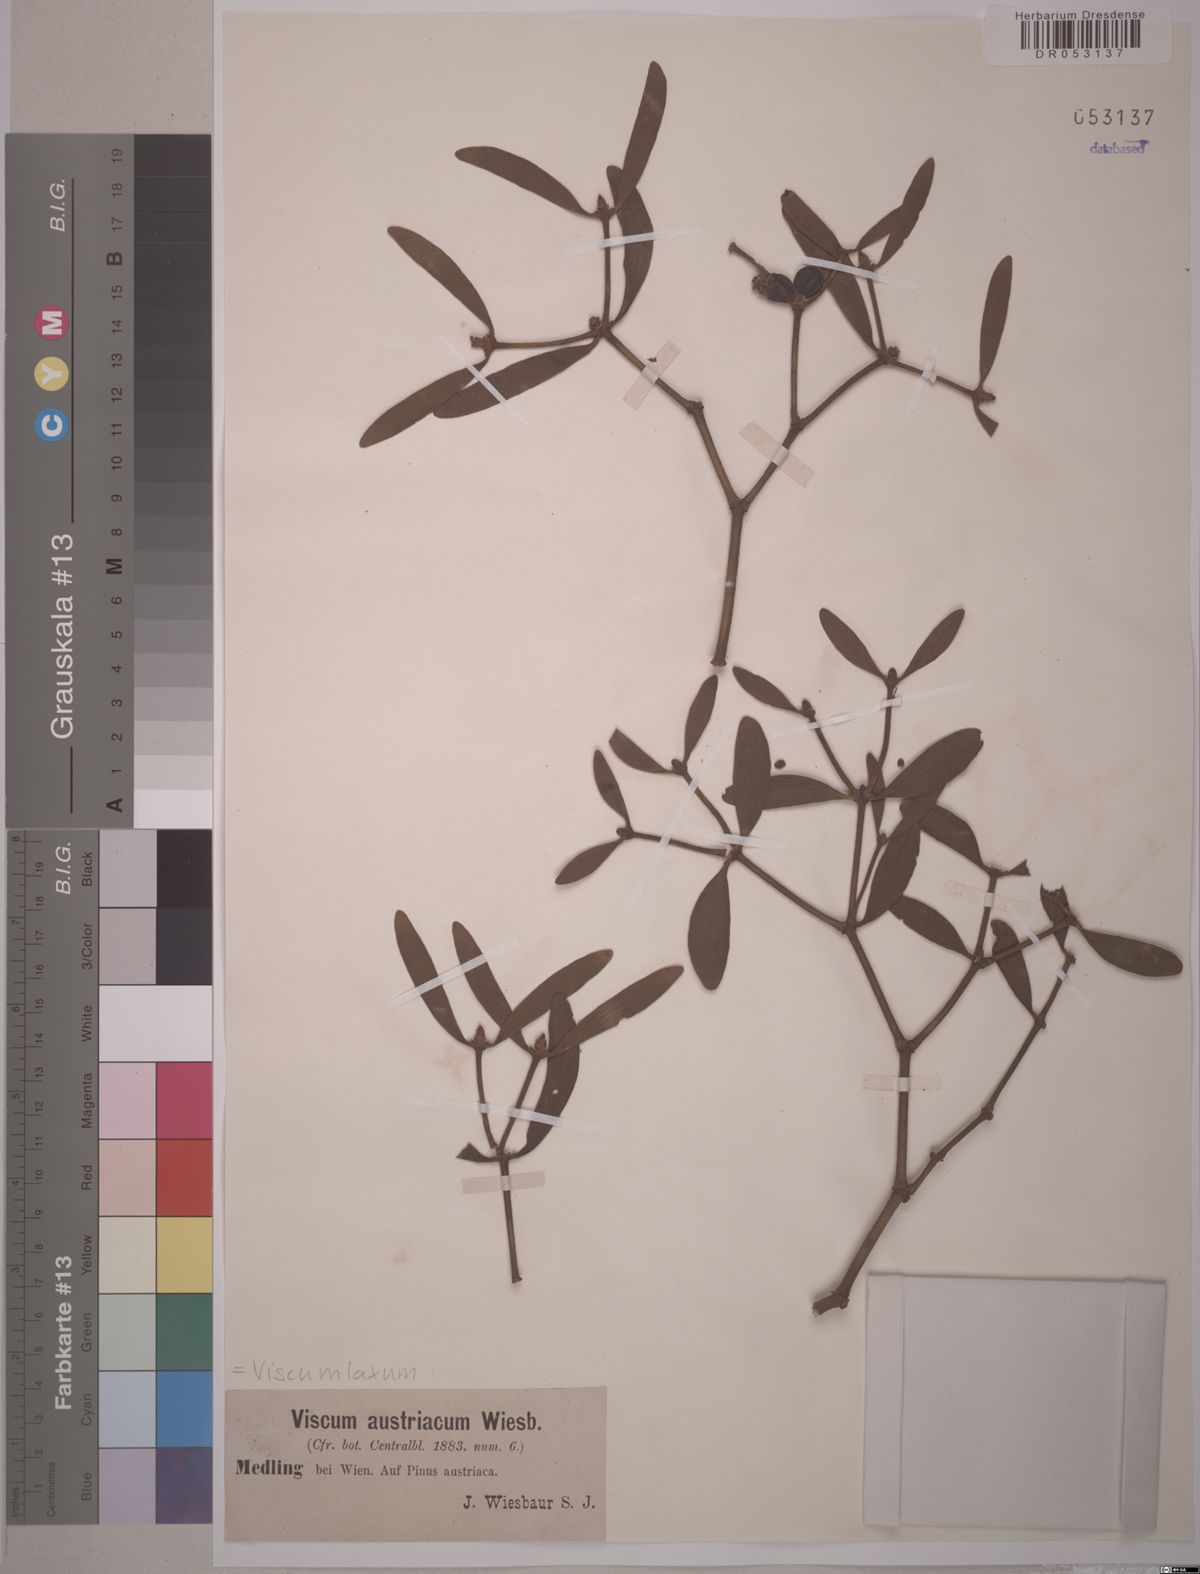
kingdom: Plantae
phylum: Tracheophyta
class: Magnoliopsida
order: Santalales
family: Viscaceae
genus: Viscum
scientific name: Viscum laxum
